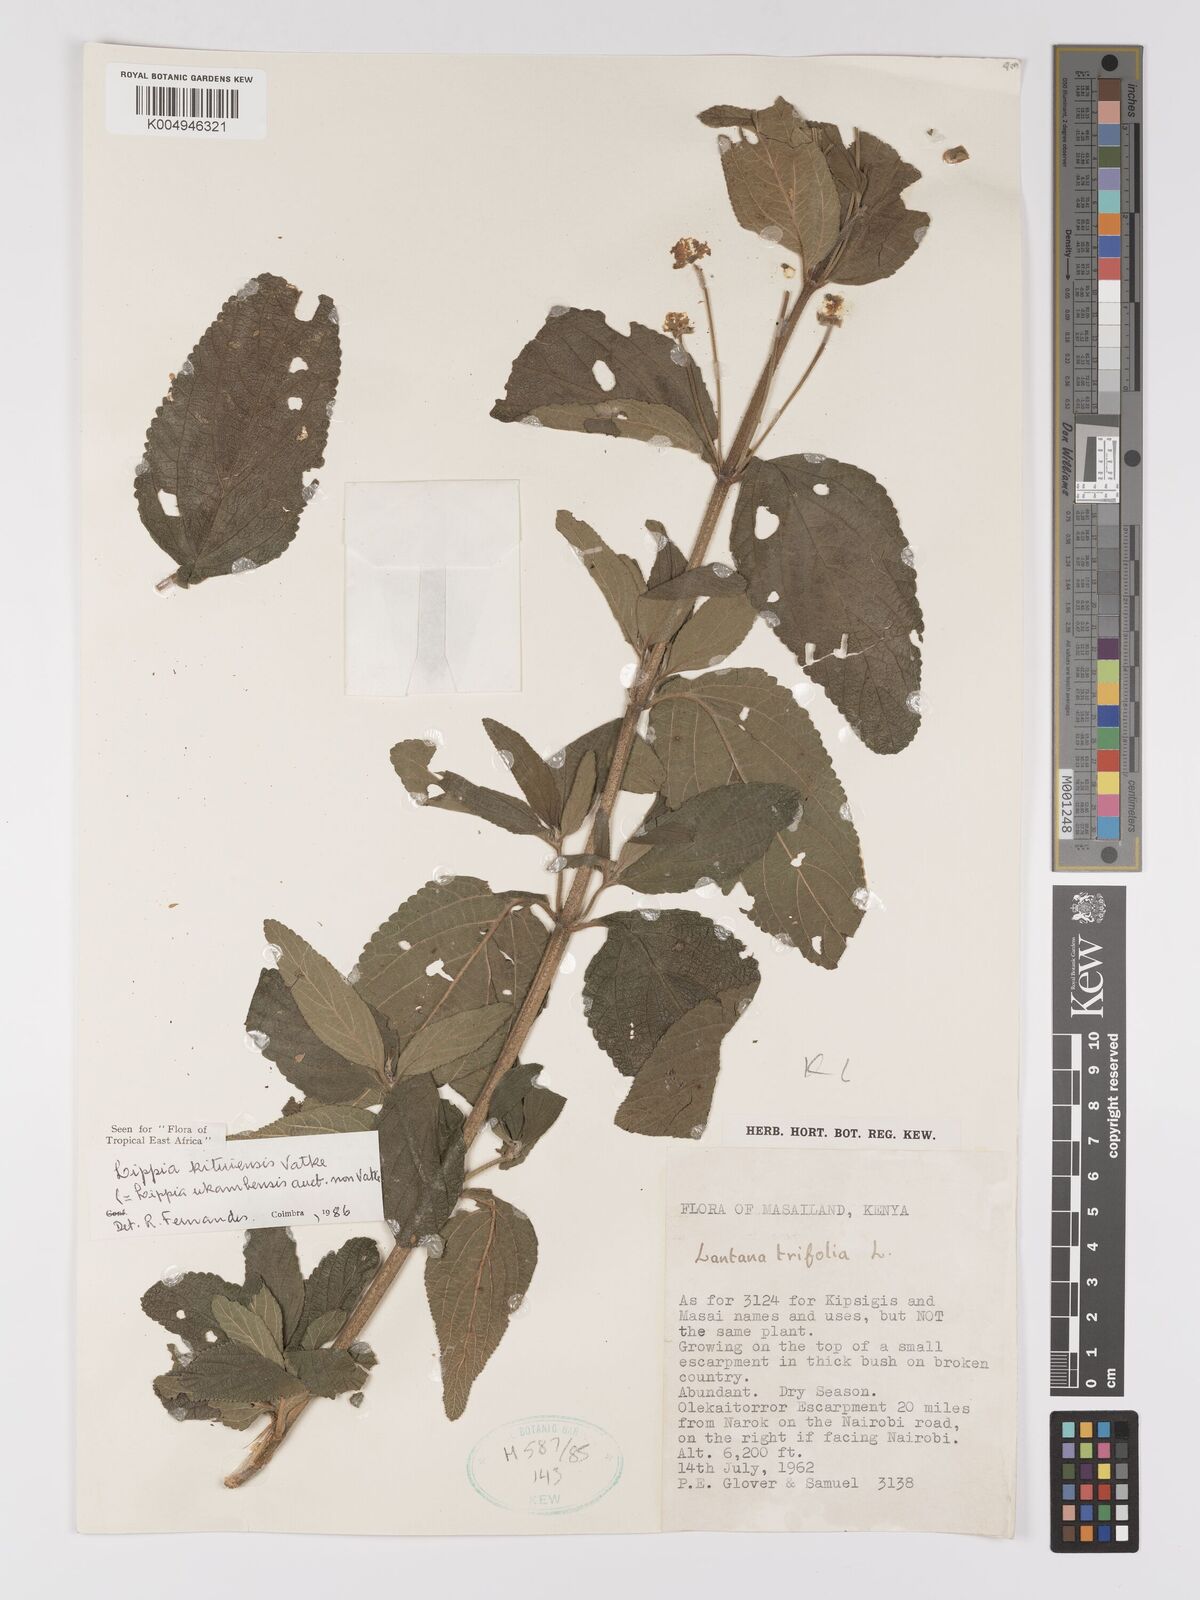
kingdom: Plantae
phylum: Tracheophyta
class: Magnoliopsida
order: Lamiales
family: Verbenaceae
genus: Lantana
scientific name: Lantana ukambensis
